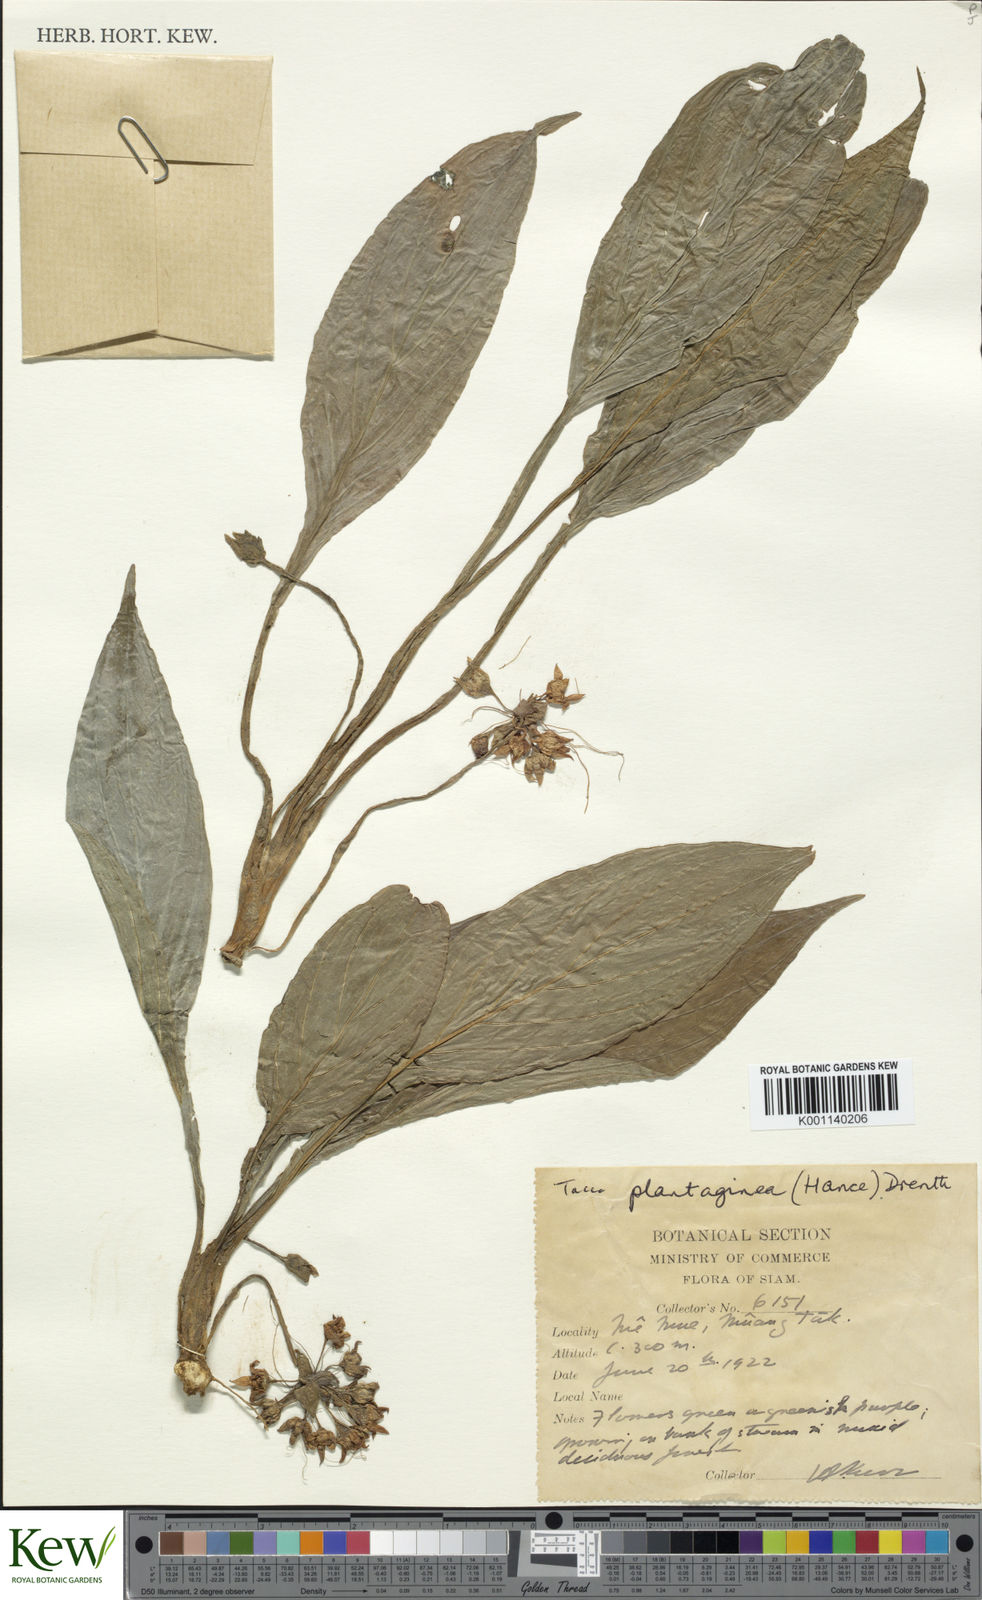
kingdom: Plantae
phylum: Tracheophyta
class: Liliopsida
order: Dioscoreales
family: Dioscoreaceae
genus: Tacca
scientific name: Tacca plantaginea
